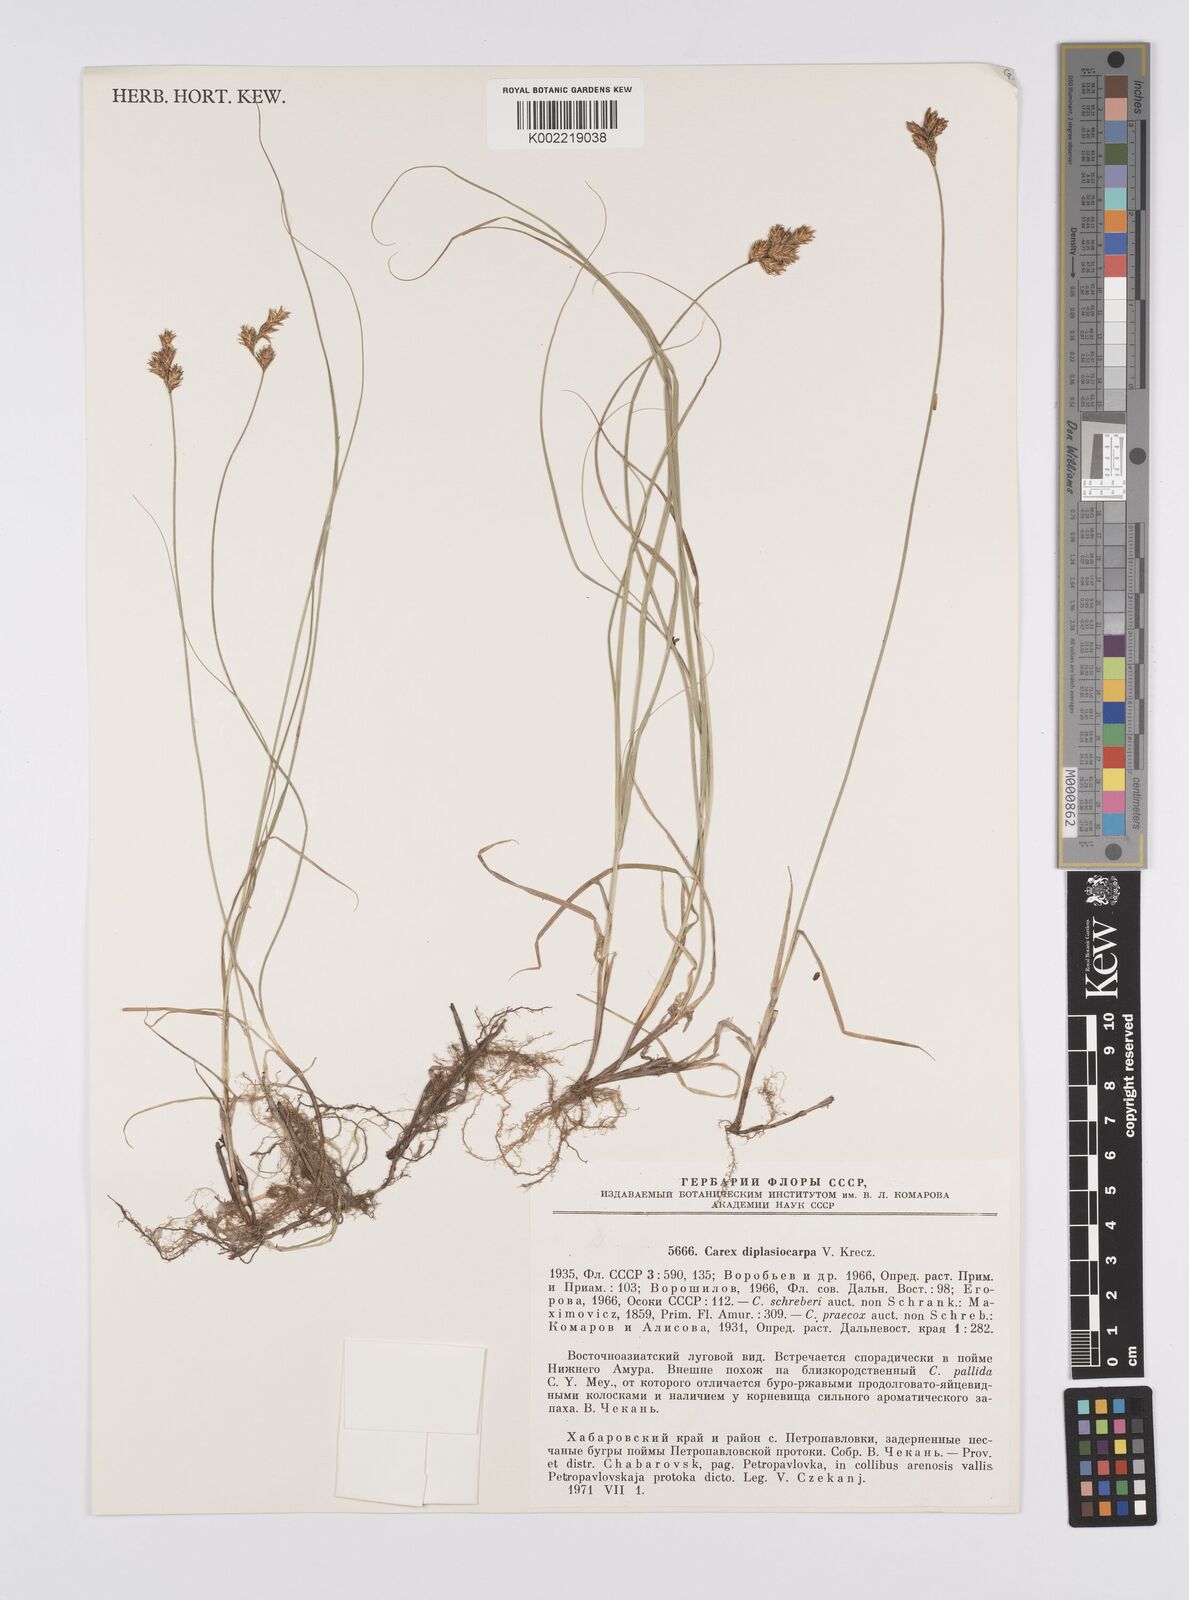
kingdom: Plantae
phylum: Tracheophyta
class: Liliopsida
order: Poales
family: Cyperaceae
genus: Carex
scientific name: Carex yamatsutana
